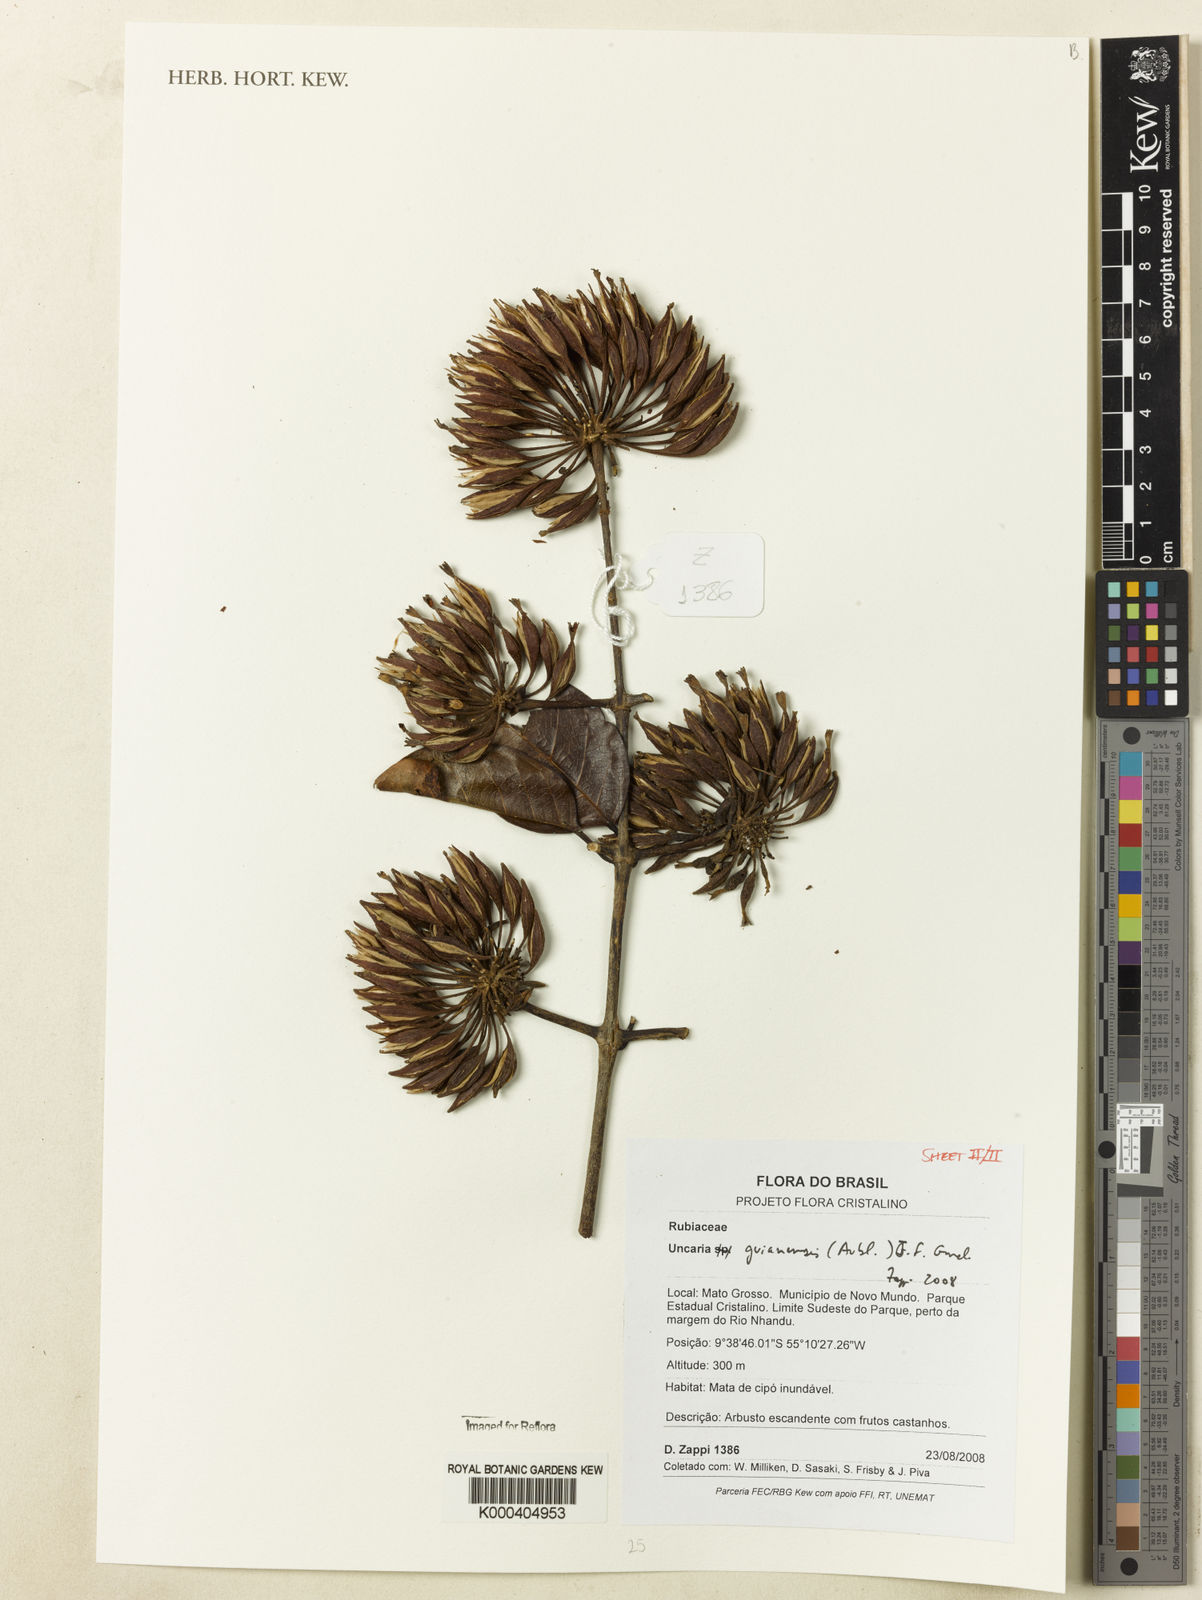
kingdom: Plantae
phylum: Tracheophyta
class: Magnoliopsida
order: Gentianales
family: Rubiaceae
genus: Uncaria
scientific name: Uncaria guianensis
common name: Cat's-claw
